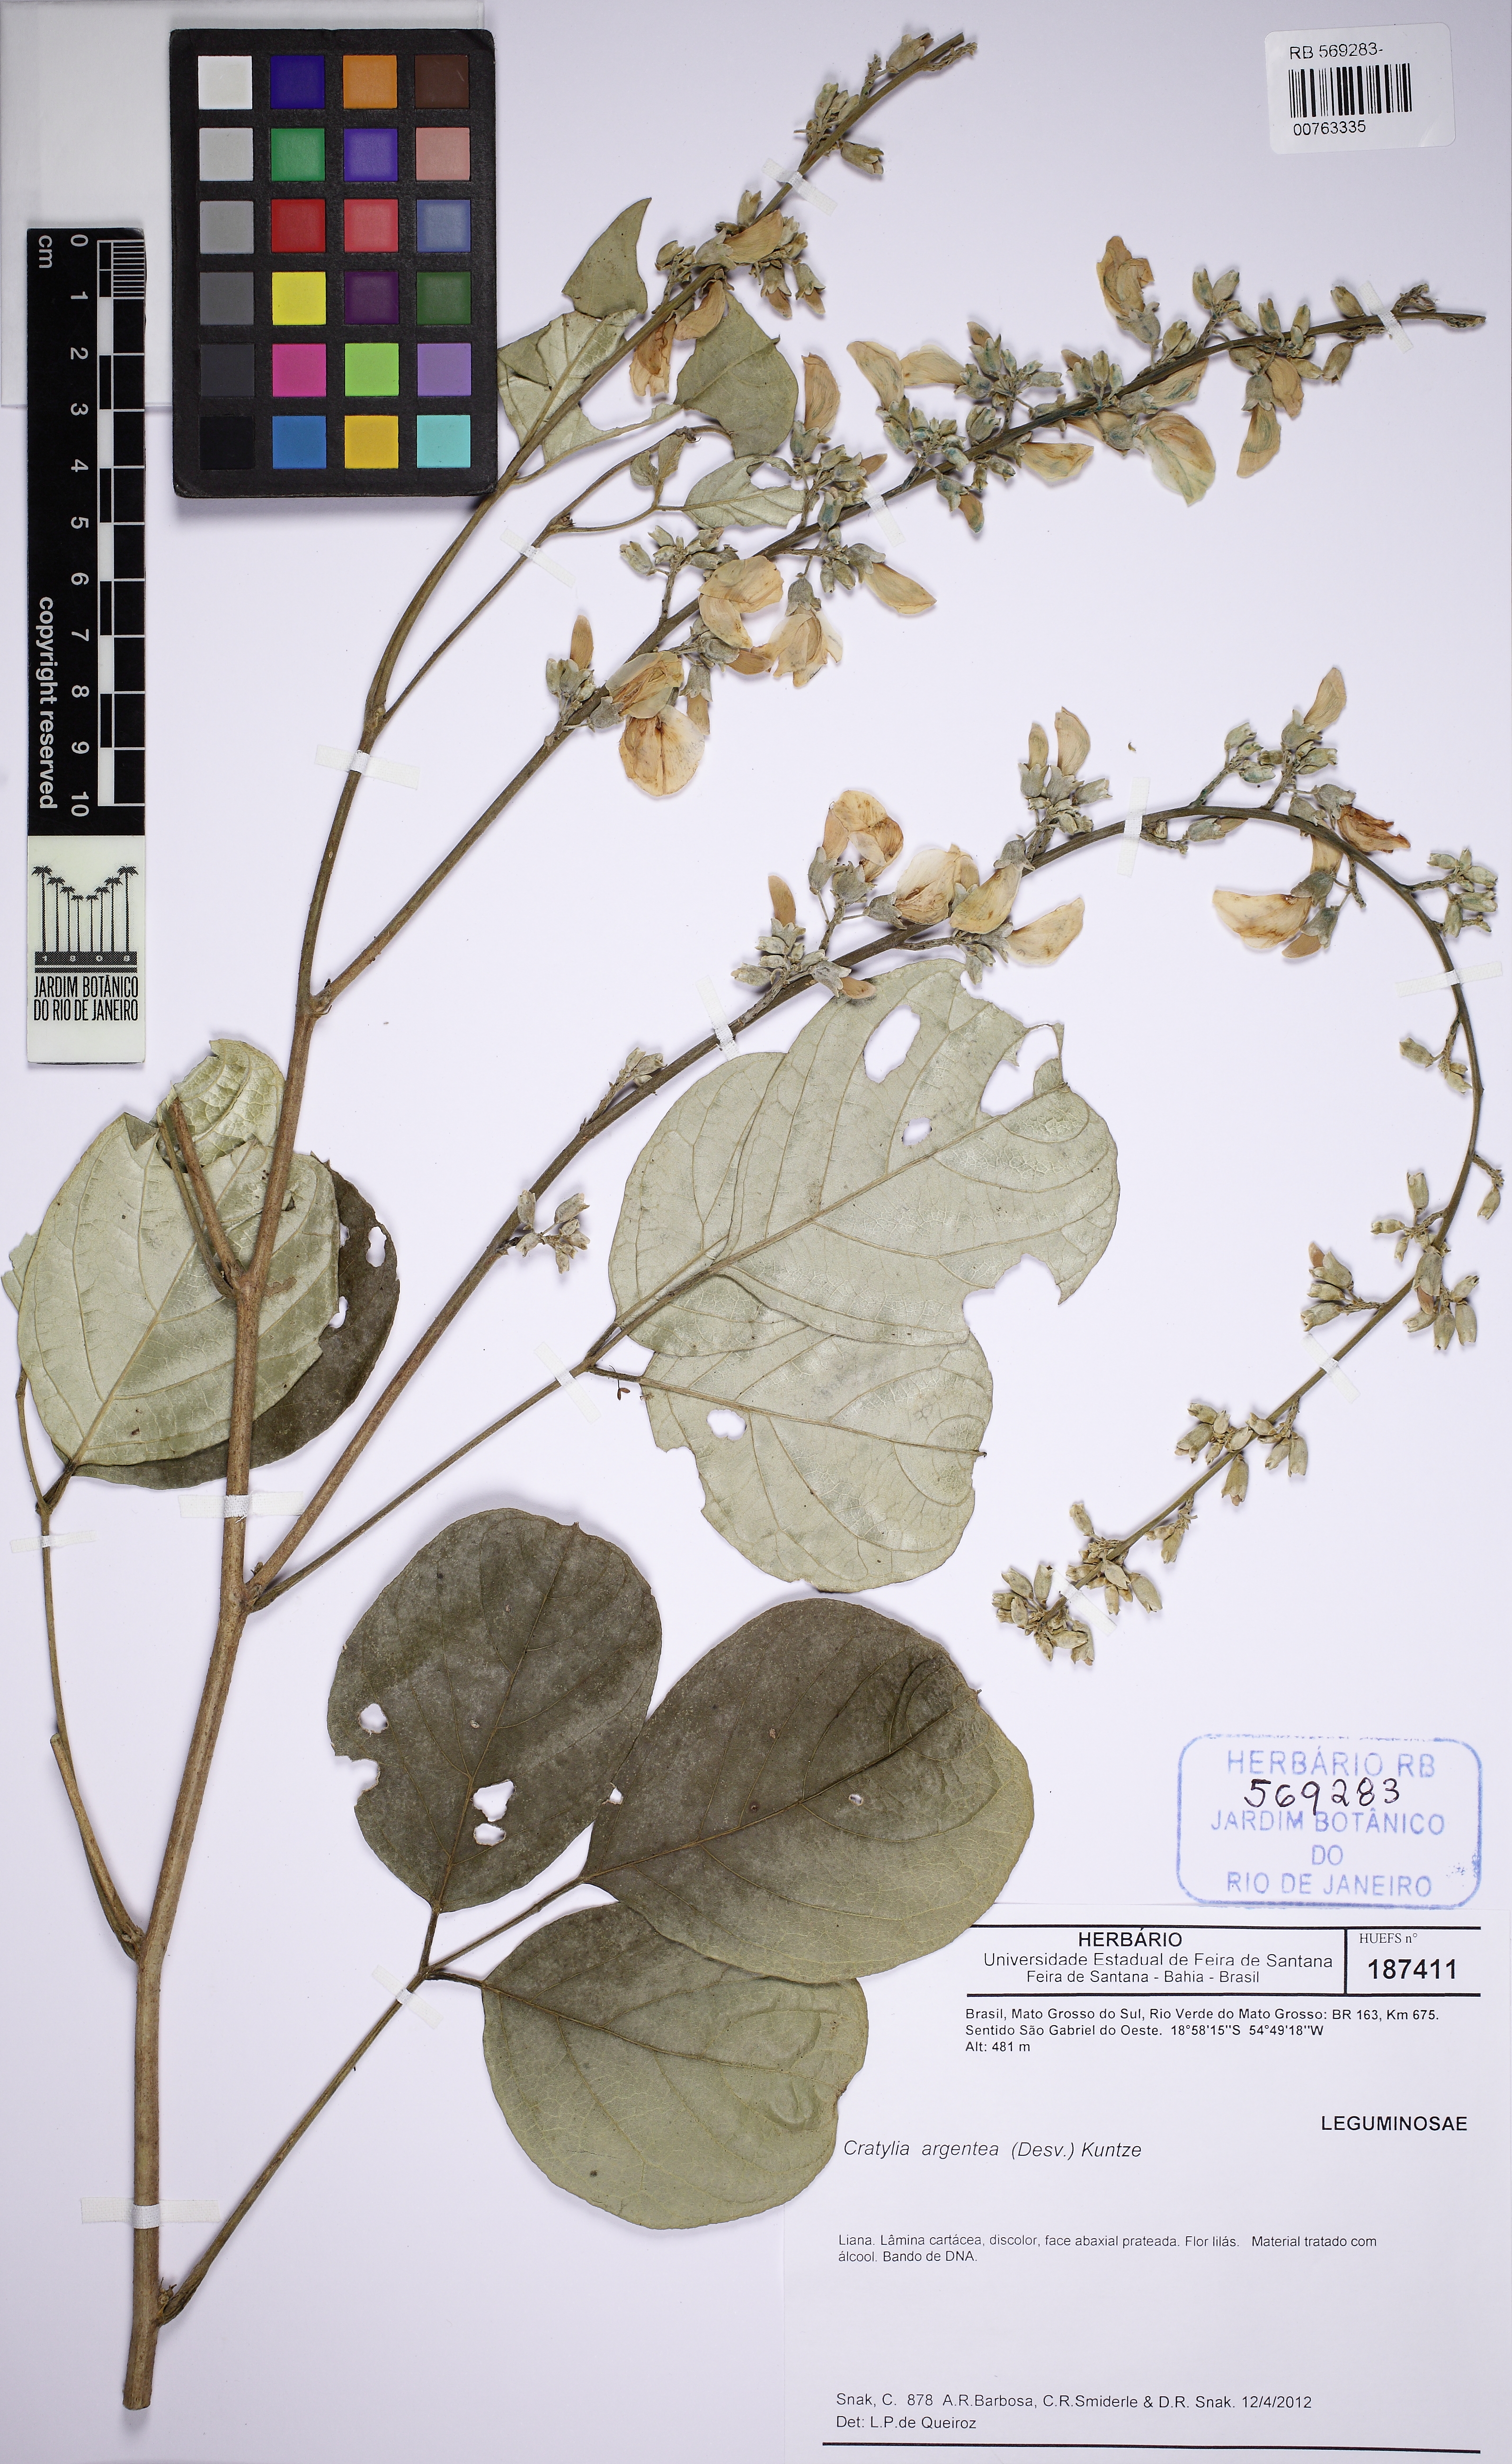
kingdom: Plantae
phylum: Tracheophyta
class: Magnoliopsida
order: Fabales
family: Fabaceae
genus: Cratylia
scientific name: Cratylia argentea
